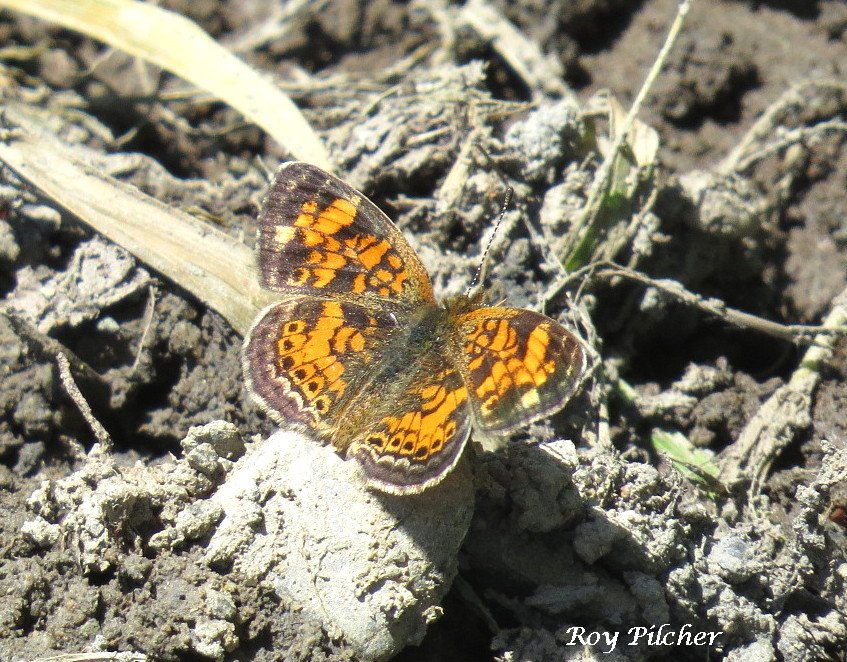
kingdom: Animalia
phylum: Arthropoda
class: Insecta
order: Lepidoptera
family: Nymphalidae
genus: Phyciodes
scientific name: Phyciodes
